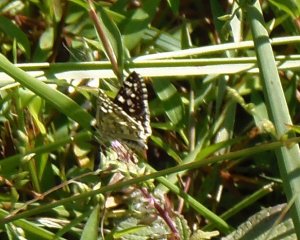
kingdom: Animalia
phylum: Arthropoda
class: Insecta
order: Lepidoptera
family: Hesperiidae
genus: Pyrgus
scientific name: Pyrgus communis
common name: Common Checkered-Skipper
